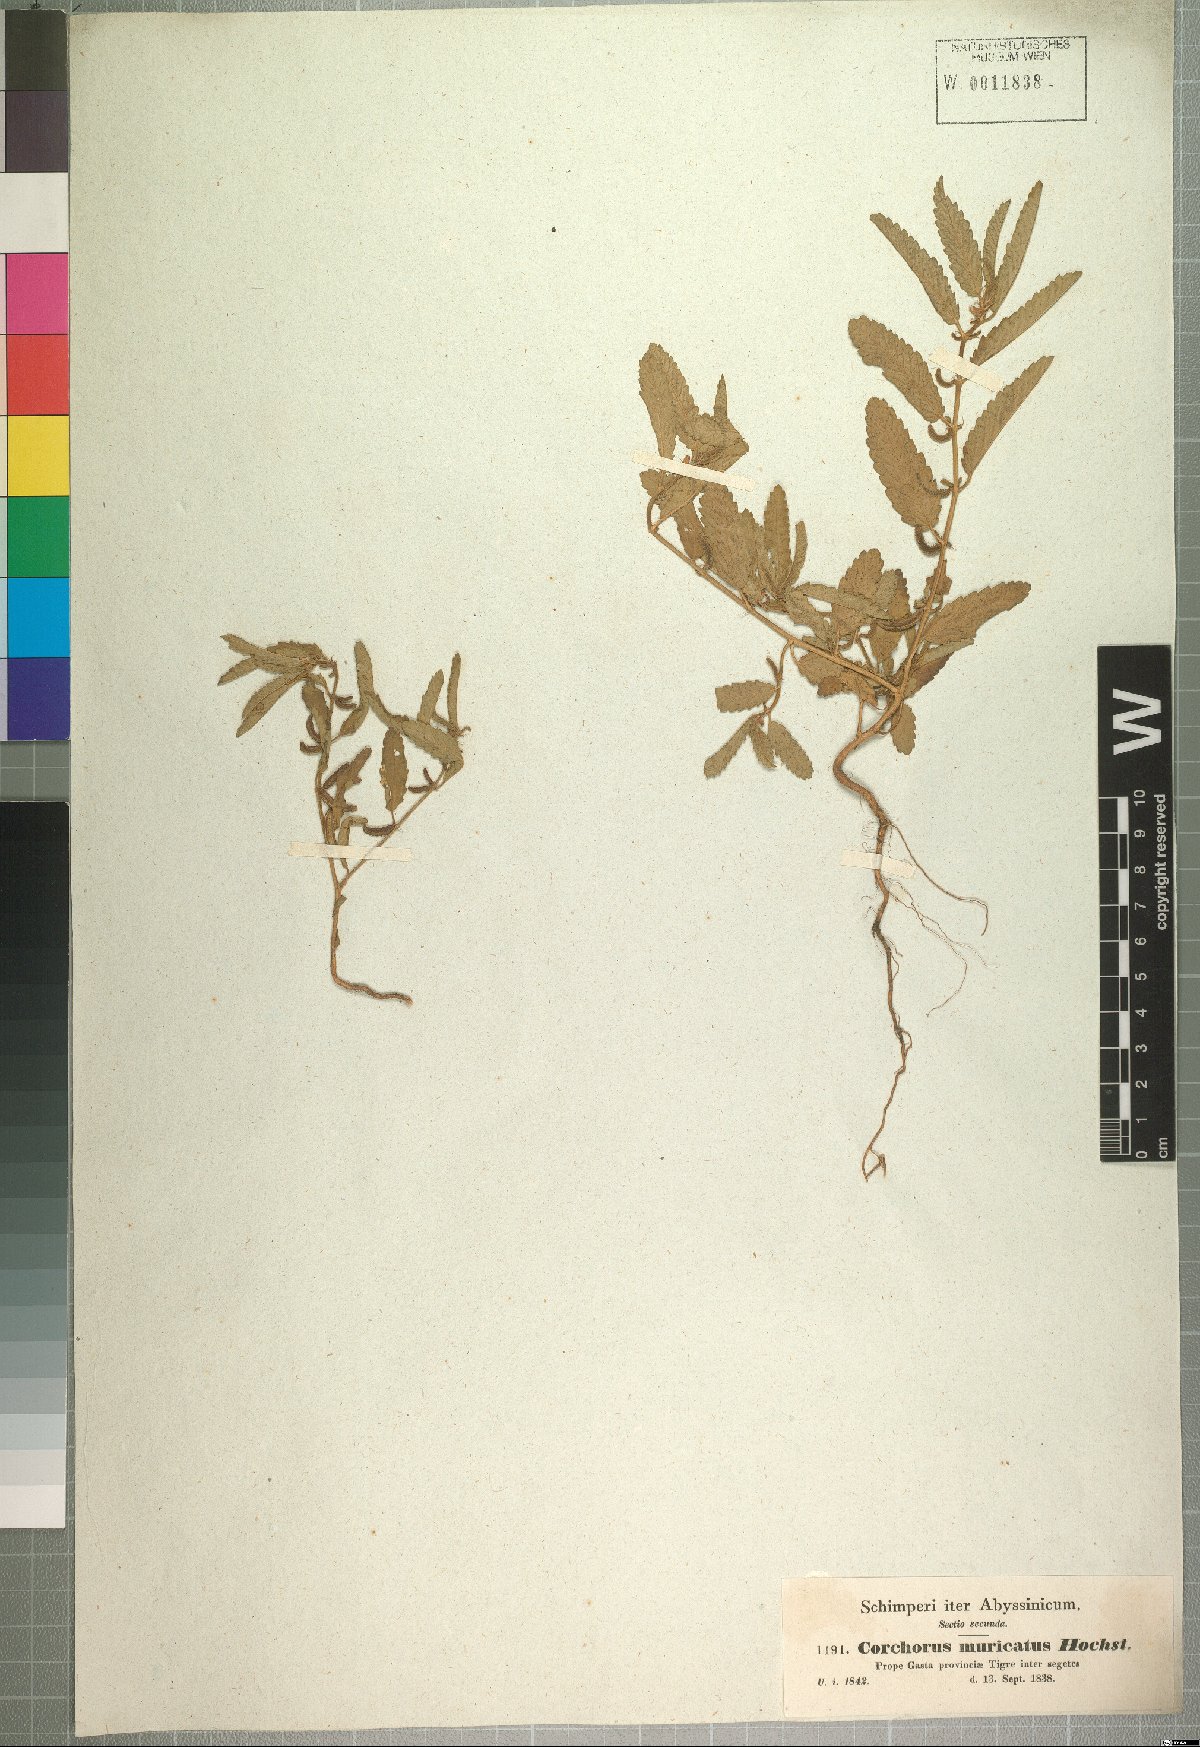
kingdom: Plantae
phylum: Tracheophyta
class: Magnoliopsida
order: Malvales
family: Malvaceae
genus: Corchorus
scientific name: Corchorus schimperi
